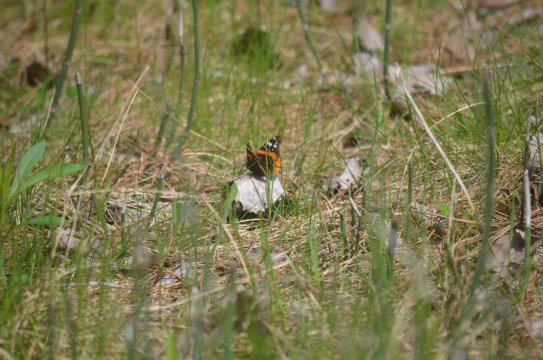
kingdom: Animalia
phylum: Arthropoda
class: Insecta
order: Lepidoptera
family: Nymphalidae
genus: Vanessa
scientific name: Vanessa atalanta
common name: Red Admiral
